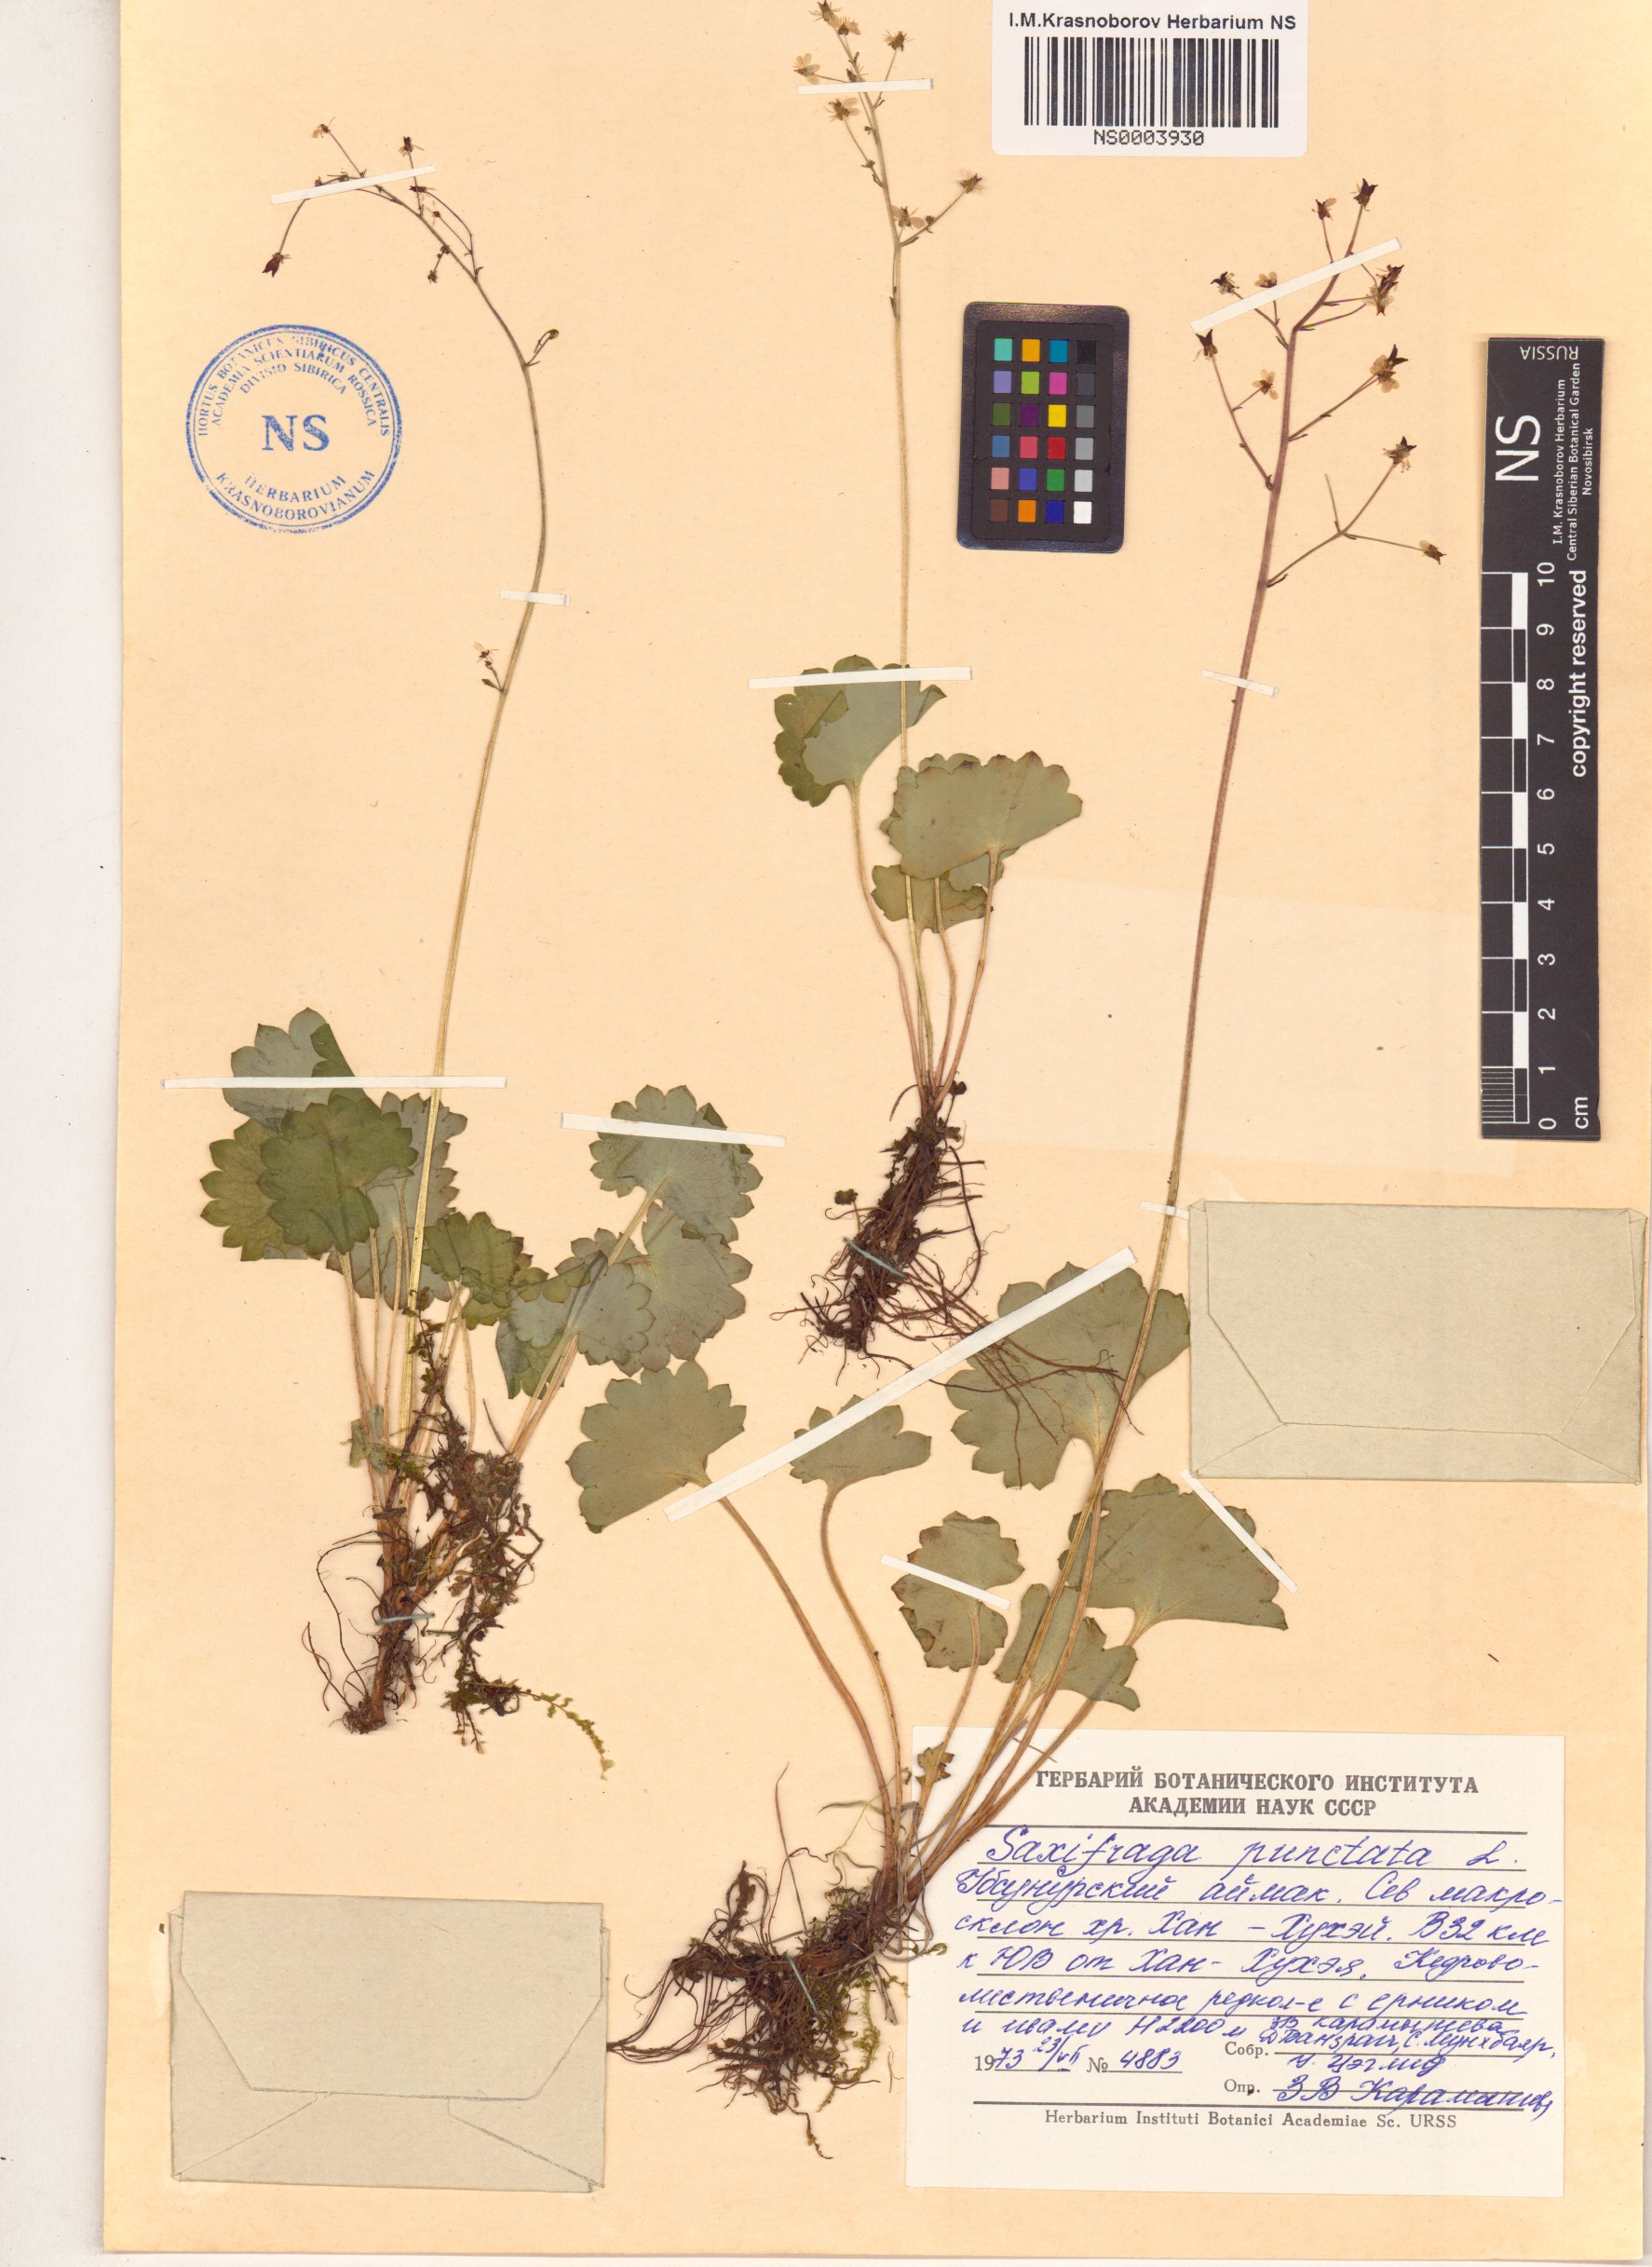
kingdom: Plantae
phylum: Tracheophyta
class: Magnoliopsida
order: Saxifragales
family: Saxifragaceae
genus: Micranthes
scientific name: Micranthes nivalis
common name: Alpine saxifrage
